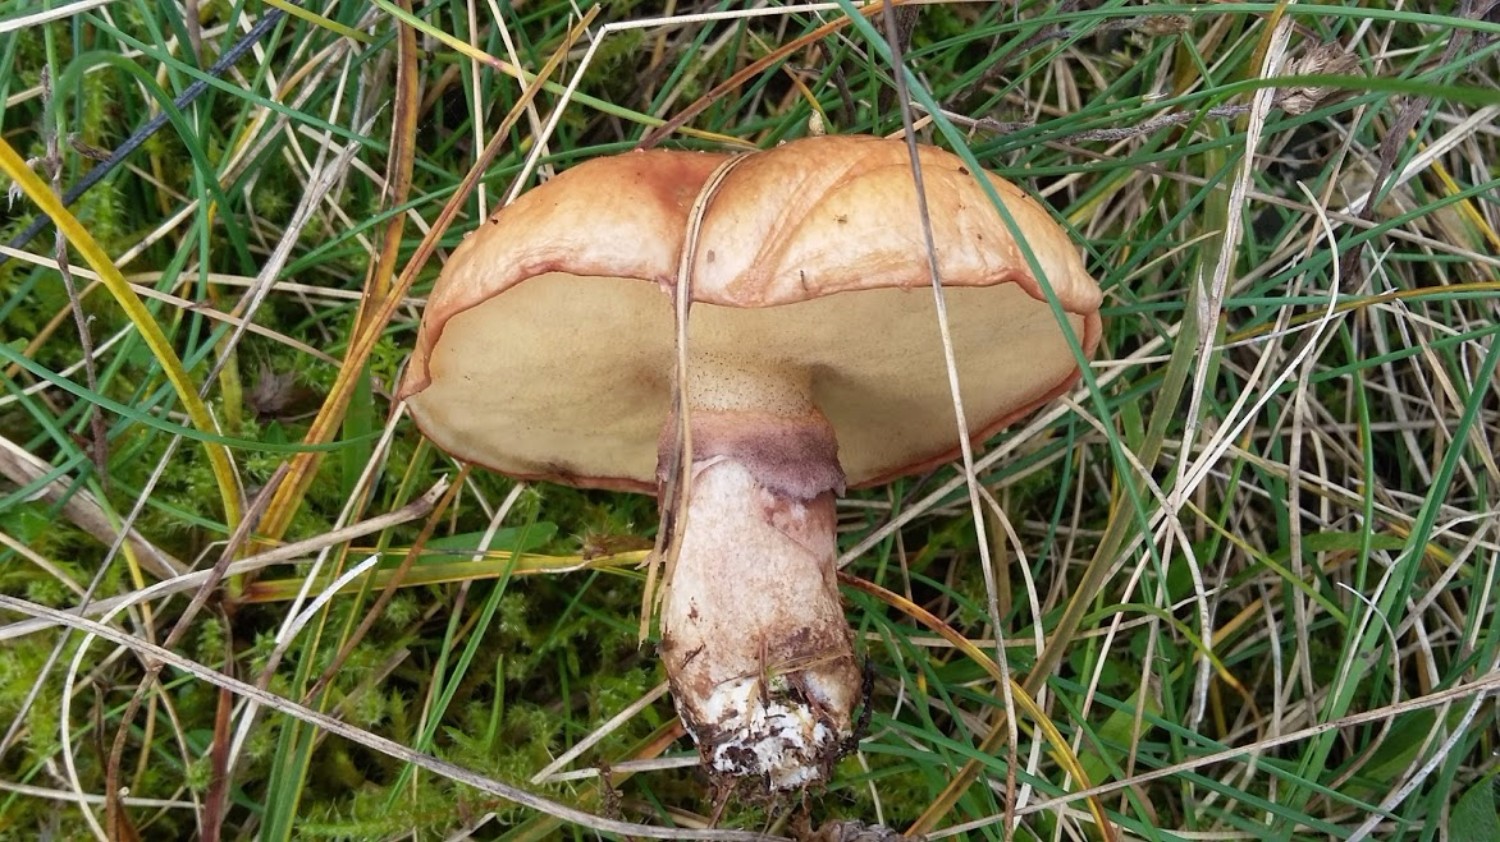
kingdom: Fungi
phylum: Basidiomycota
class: Agaricomycetes
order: Boletales
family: Suillaceae
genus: Suillus
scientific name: Suillus luteus
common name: brungul slimrørhat
